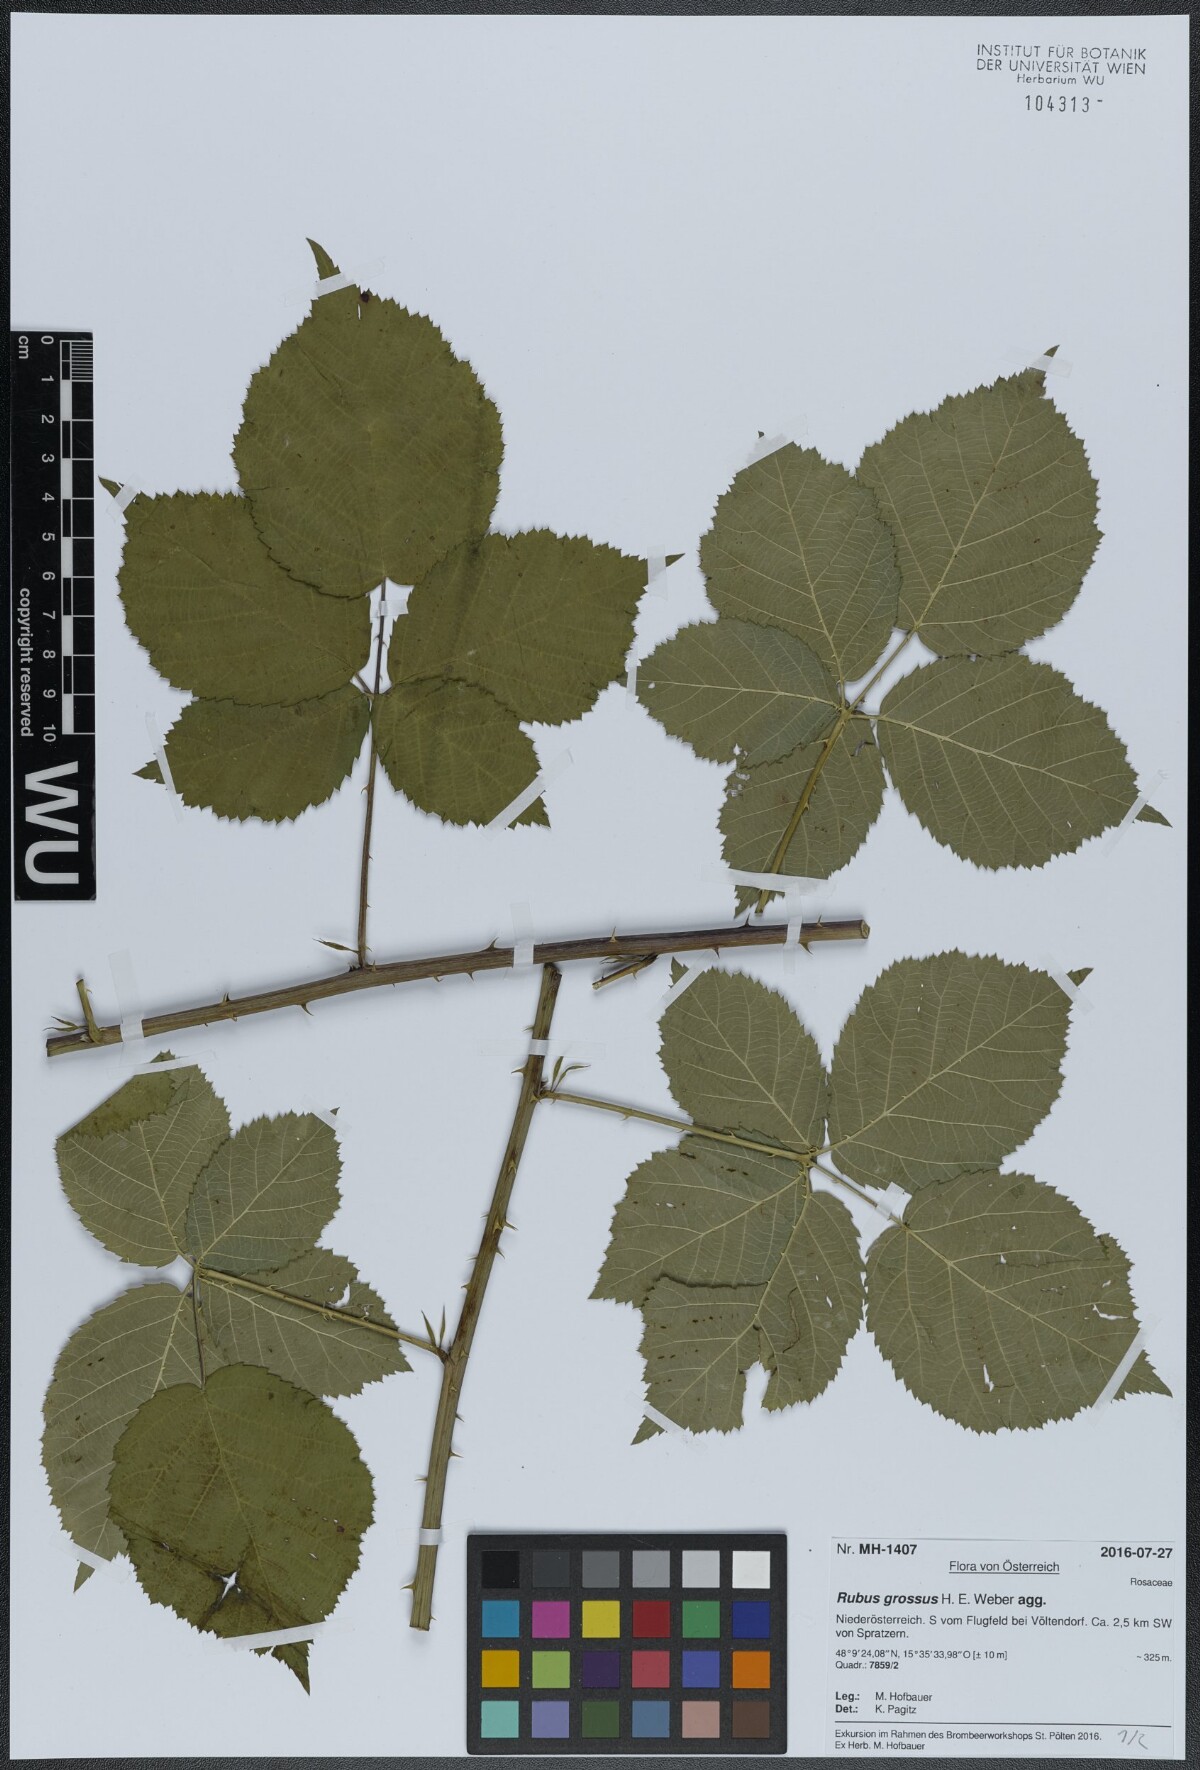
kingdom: Plantae
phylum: Tracheophyta
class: Magnoliopsida
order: Rosales
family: Rosaceae
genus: Rubus
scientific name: Rubus holandrei
